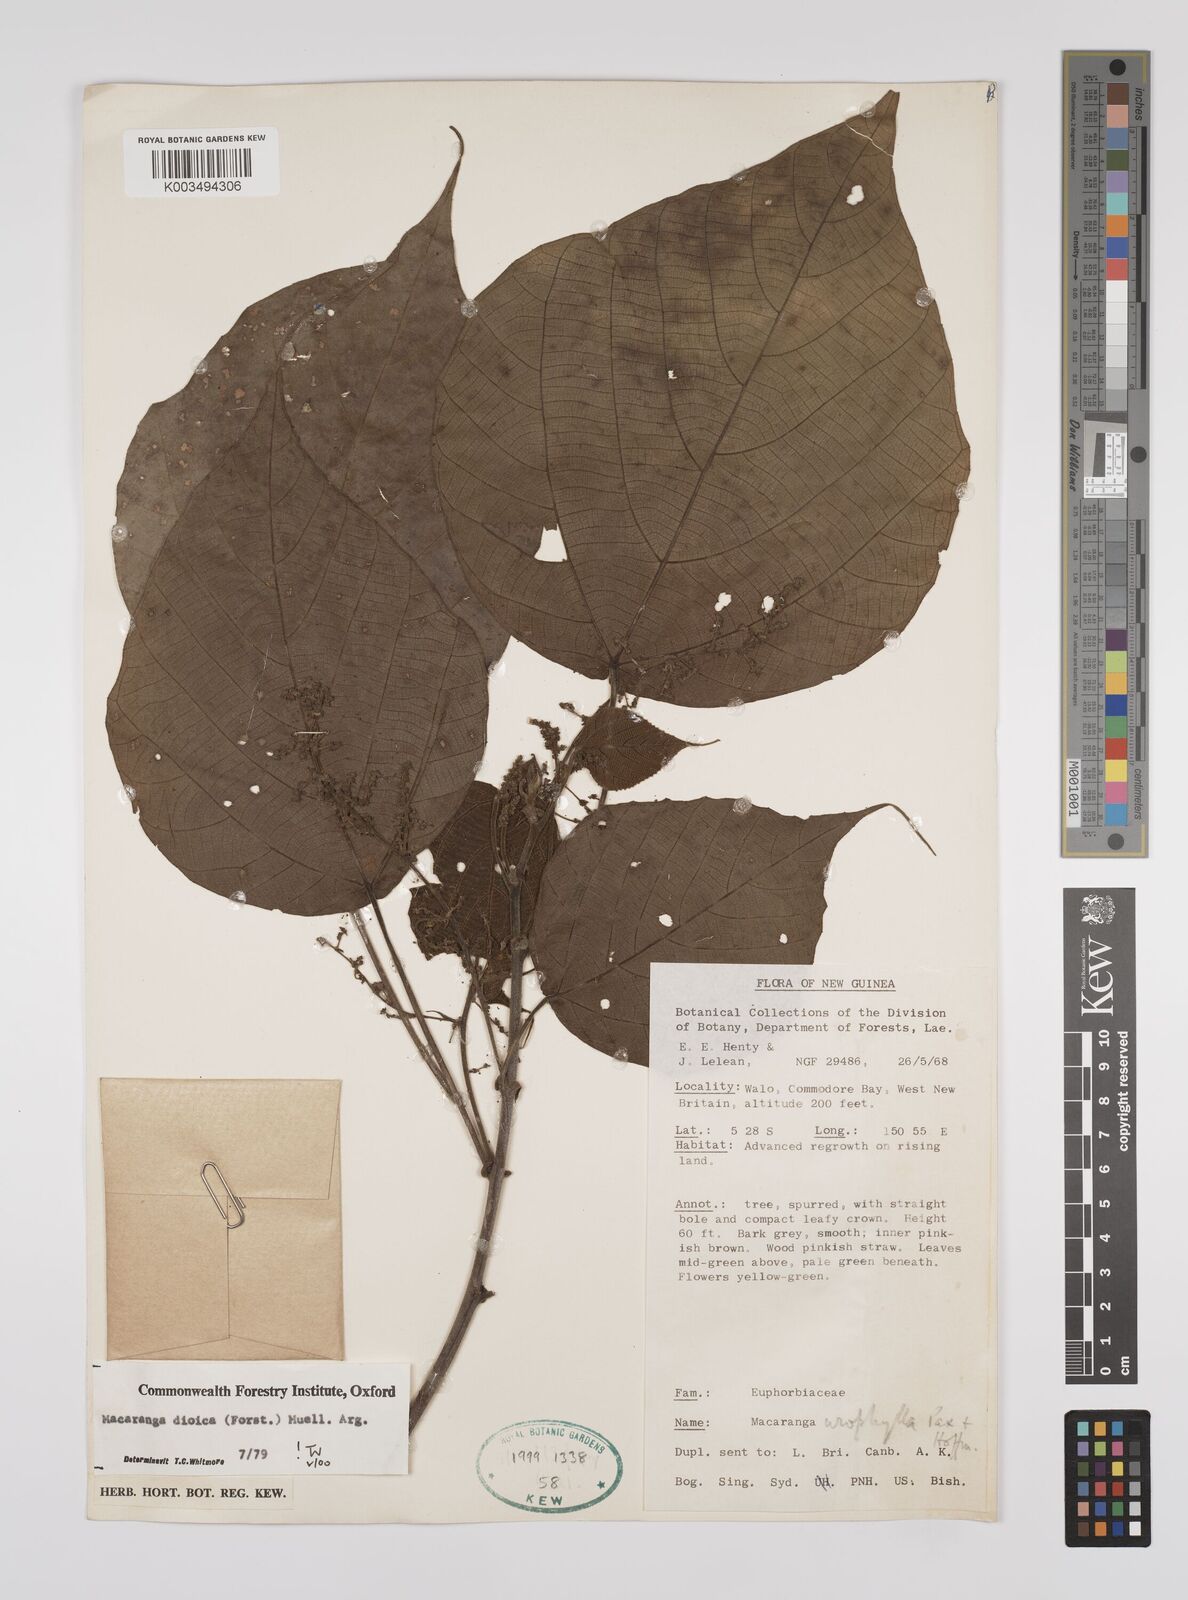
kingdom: Plantae
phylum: Tracheophyta
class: Magnoliopsida
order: Malpighiales
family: Euphorbiaceae
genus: Macaranga
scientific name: Macaranga dioica
